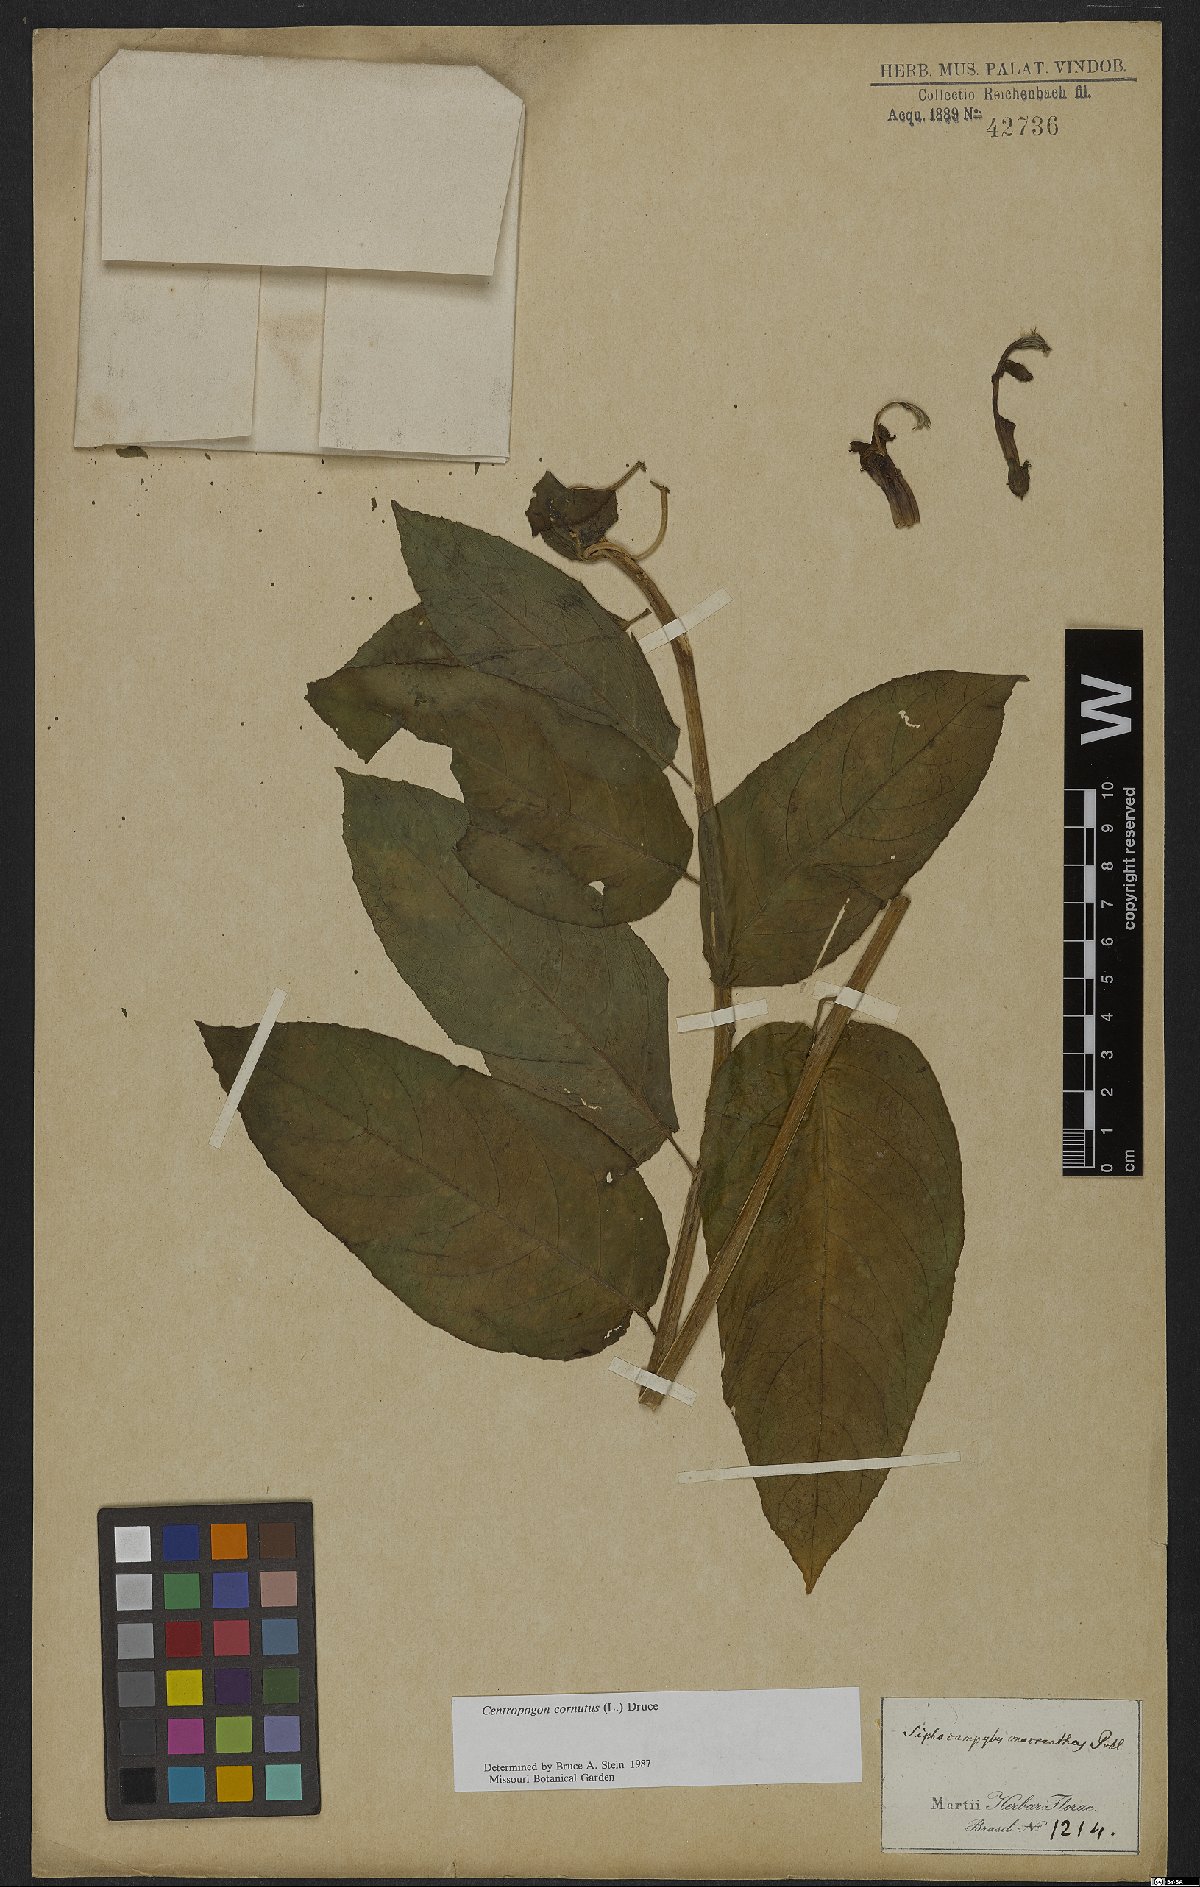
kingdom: Plantae
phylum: Tracheophyta
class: Magnoliopsida
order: Asterales
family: Campanulaceae
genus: Centropogon
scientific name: Centropogon cornutus
